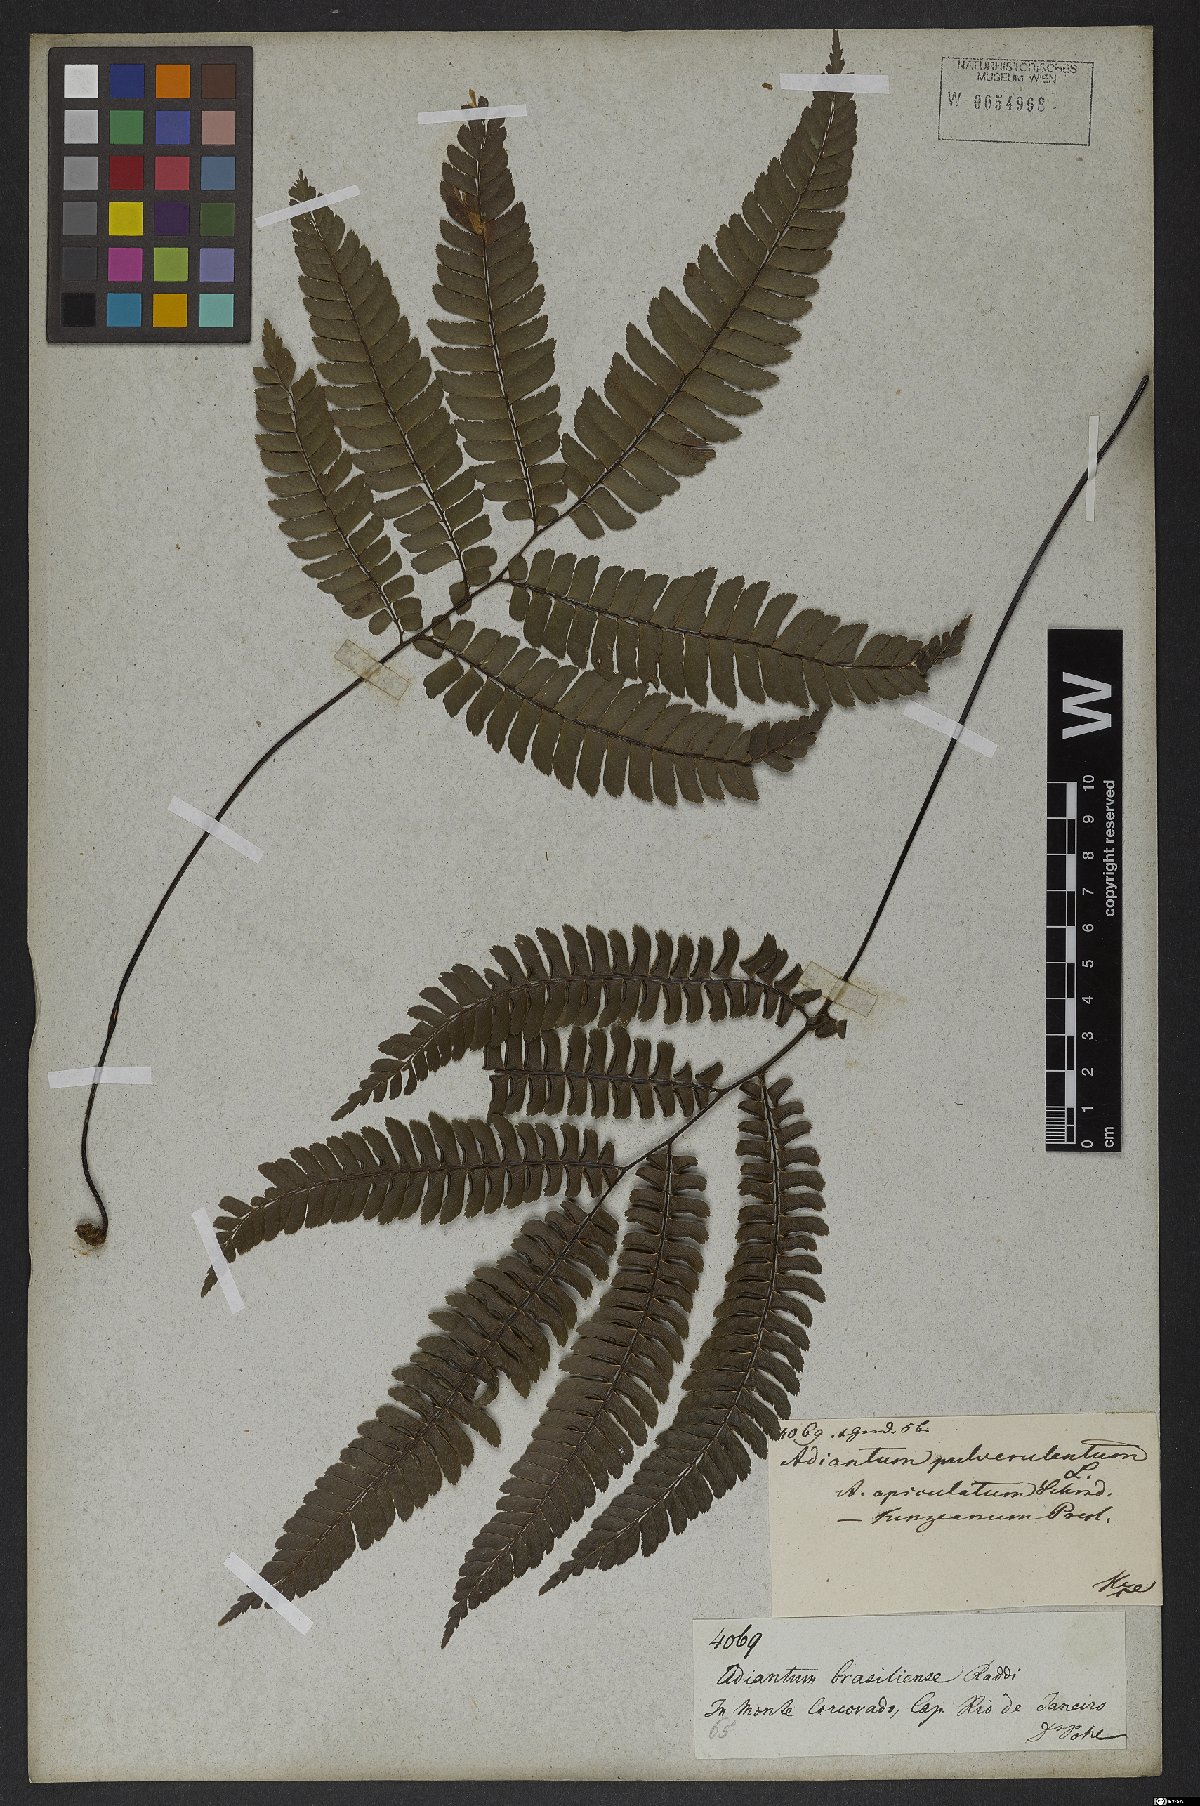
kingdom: Plantae
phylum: Tracheophyta
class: Polypodiopsida
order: Polypodiales
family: Pteridaceae
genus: Adiantum
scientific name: Adiantum pulverulentum
